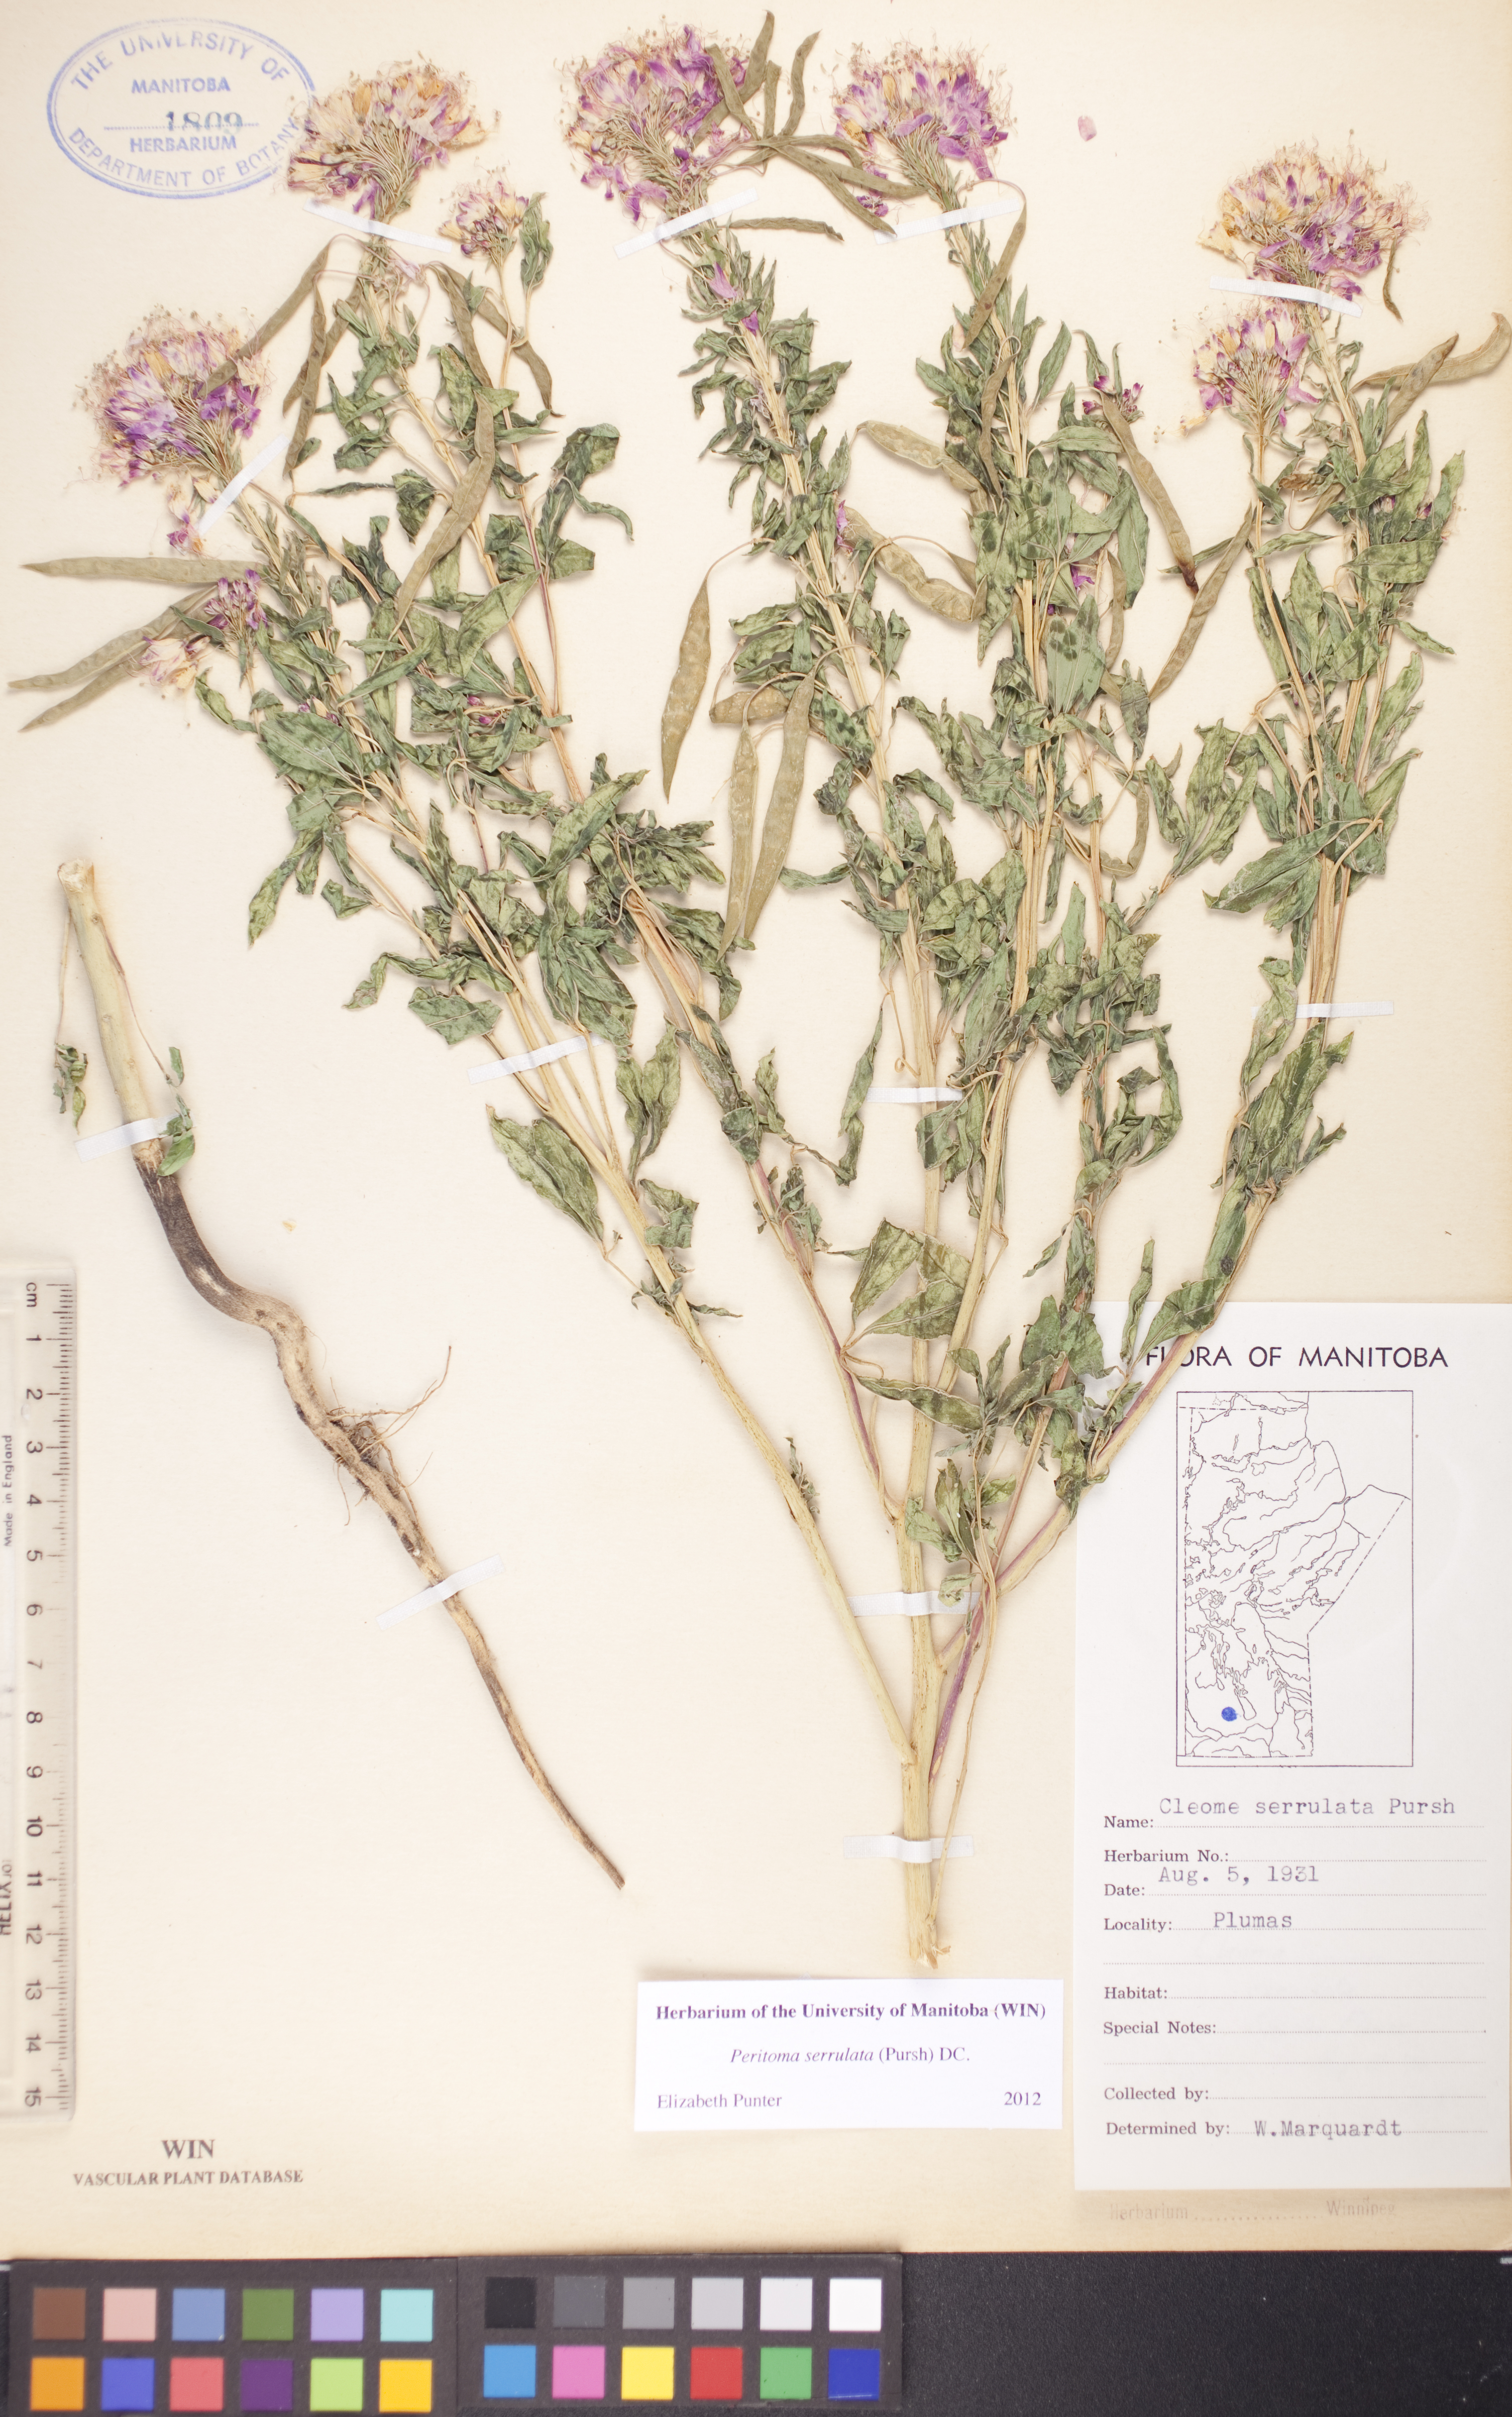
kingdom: Plantae
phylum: Tracheophyta
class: Magnoliopsida
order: Brassicales
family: Cleomaceae
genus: Cleomella
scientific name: Cleomella serrulata
